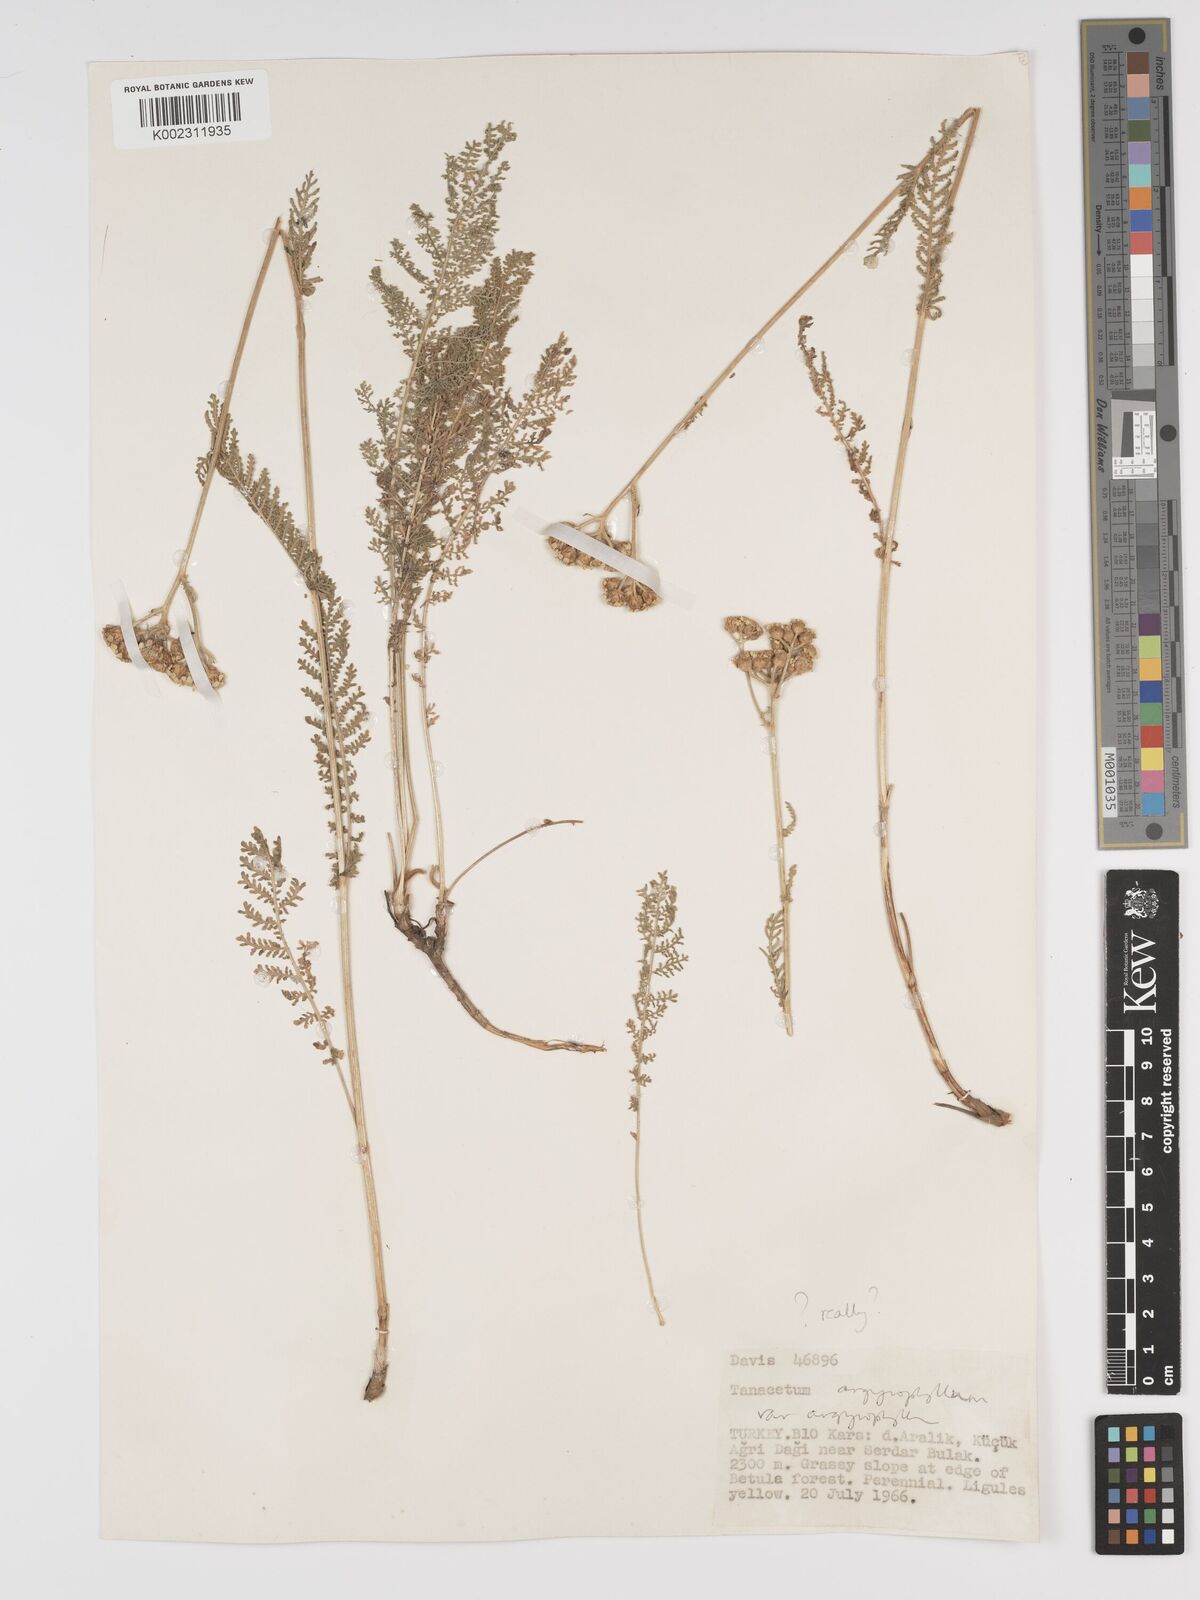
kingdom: Plantae
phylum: Tracheophyta
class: Magnoliopsida
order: Asterales
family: Asteraceae
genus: Tanacetum
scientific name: Tanacetum polycephalum
